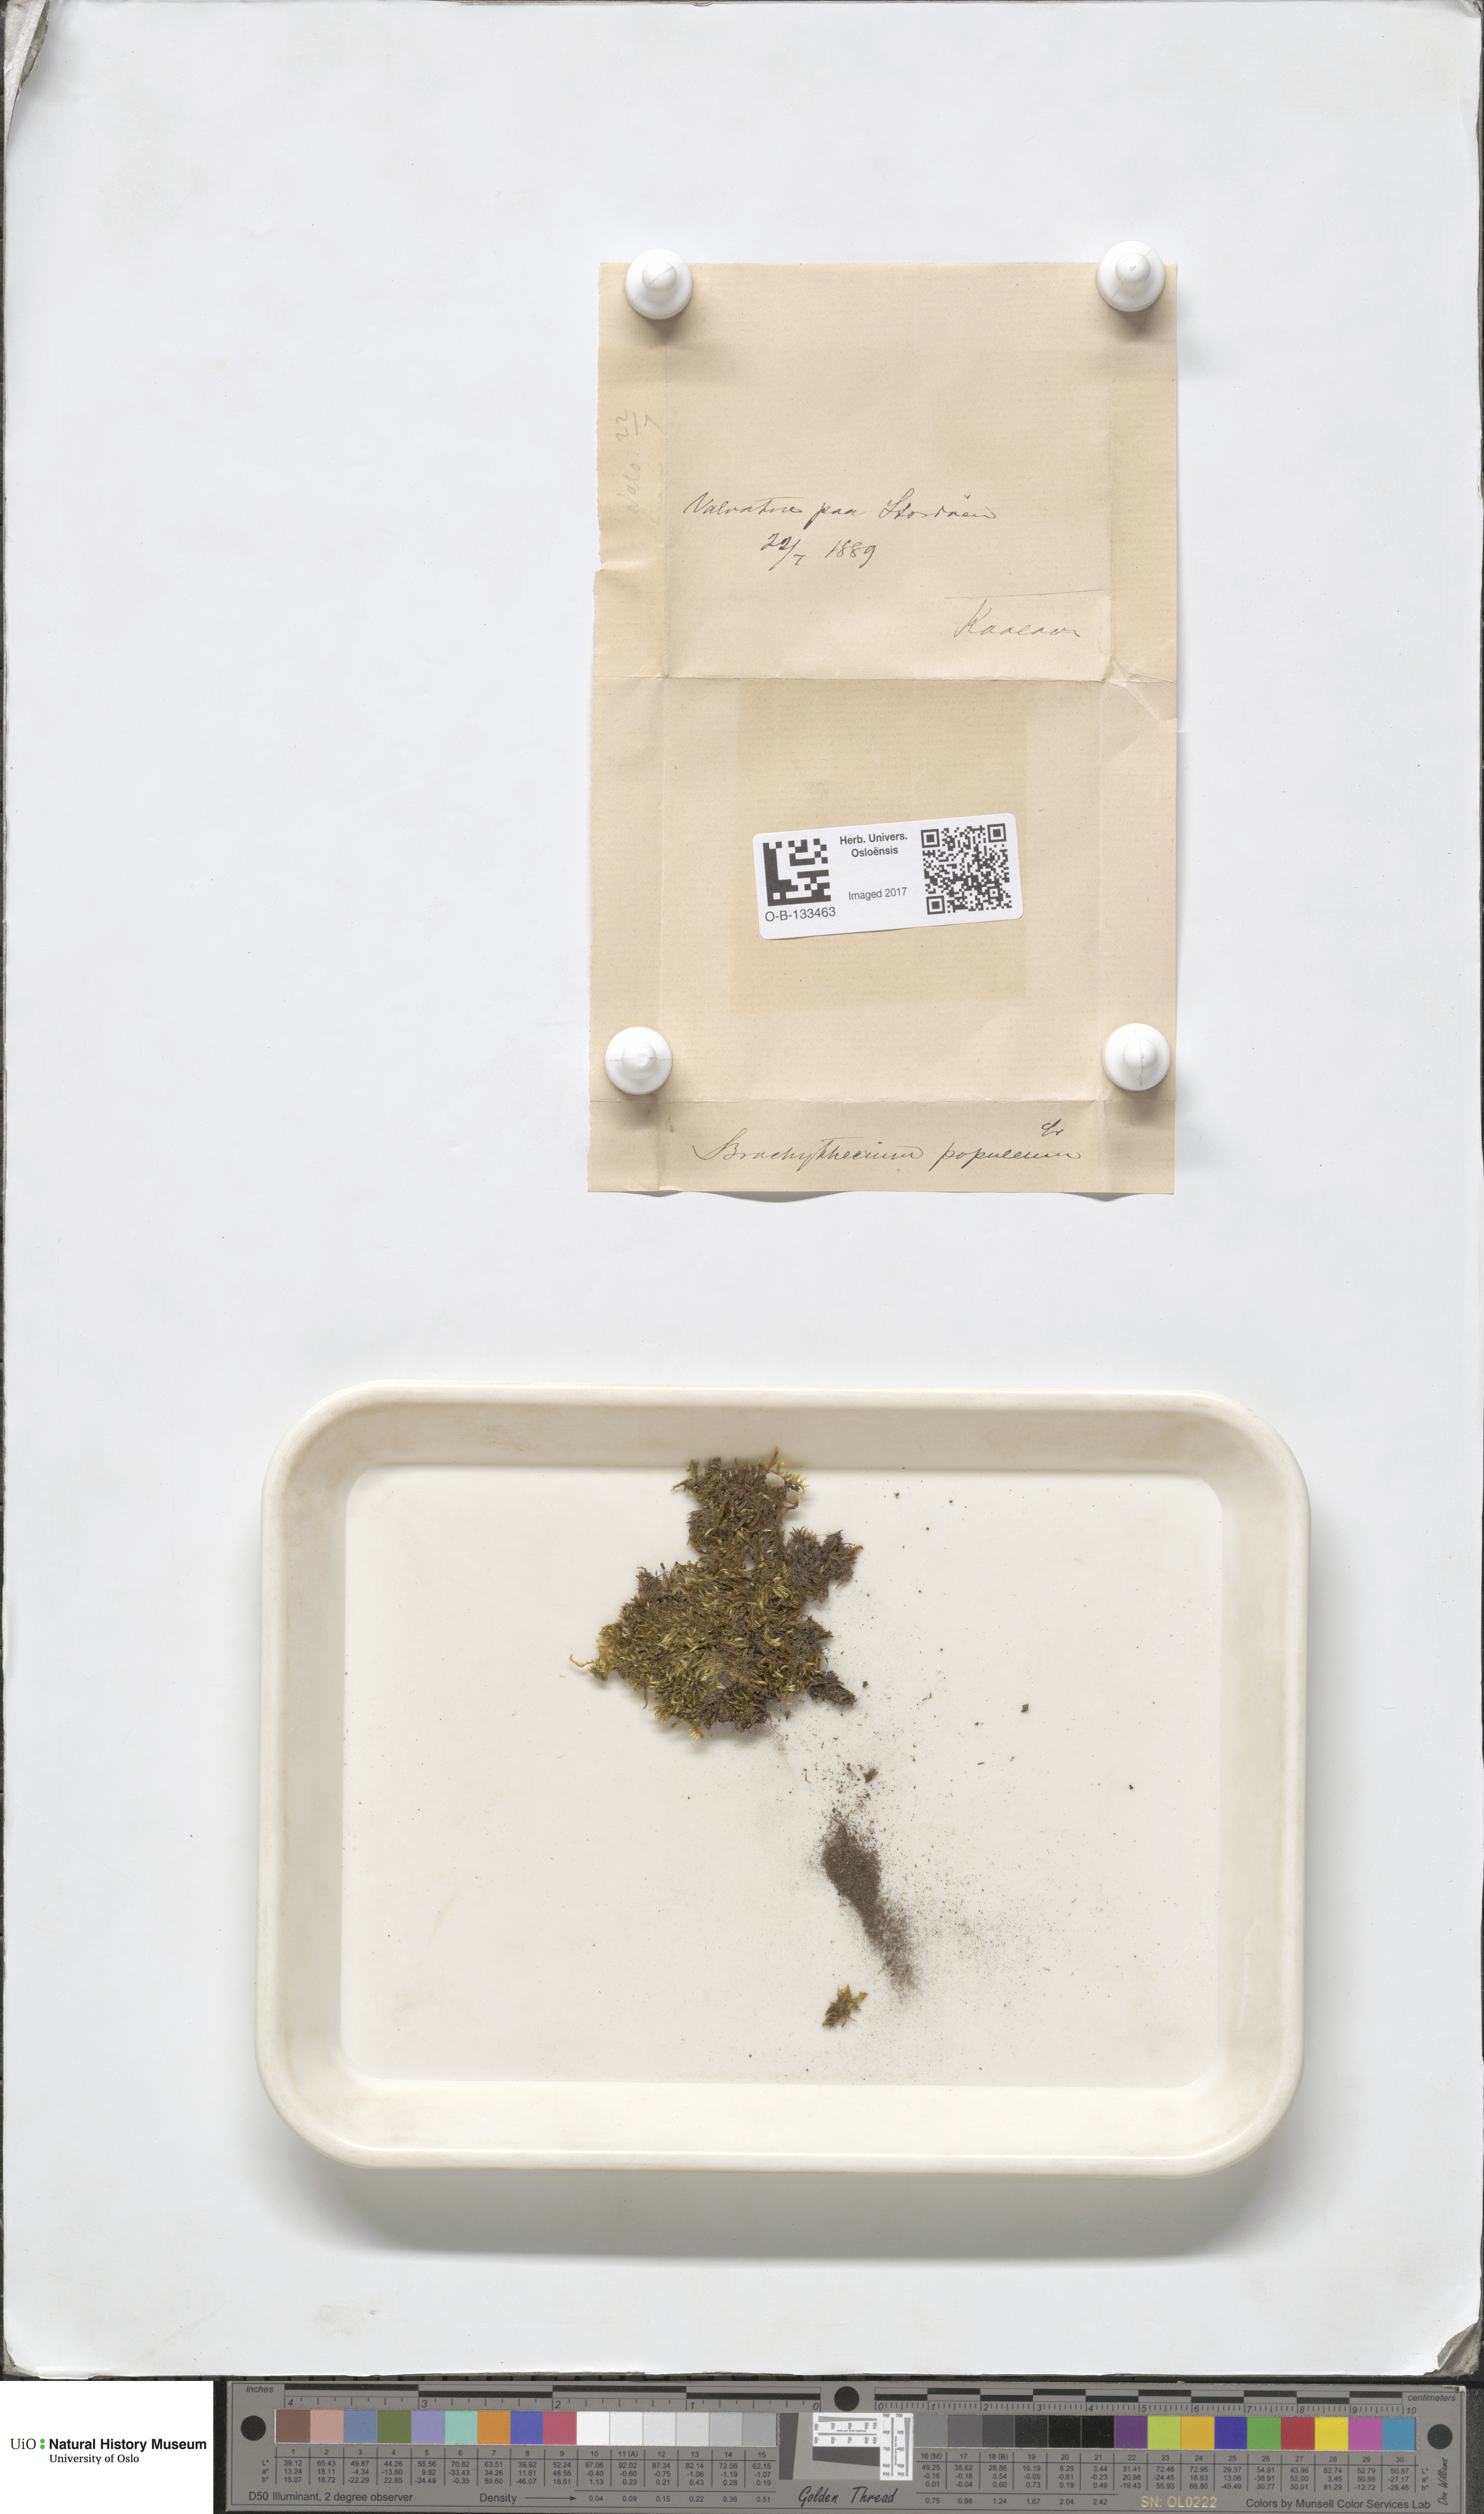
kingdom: Plantae
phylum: Bryophyta
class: Bryopsida
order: Hypnales
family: Brachytheciaceae
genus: Sciuro-hypnum
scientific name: Sciuro-hypnum plumosum
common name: Rusty feather-moss
